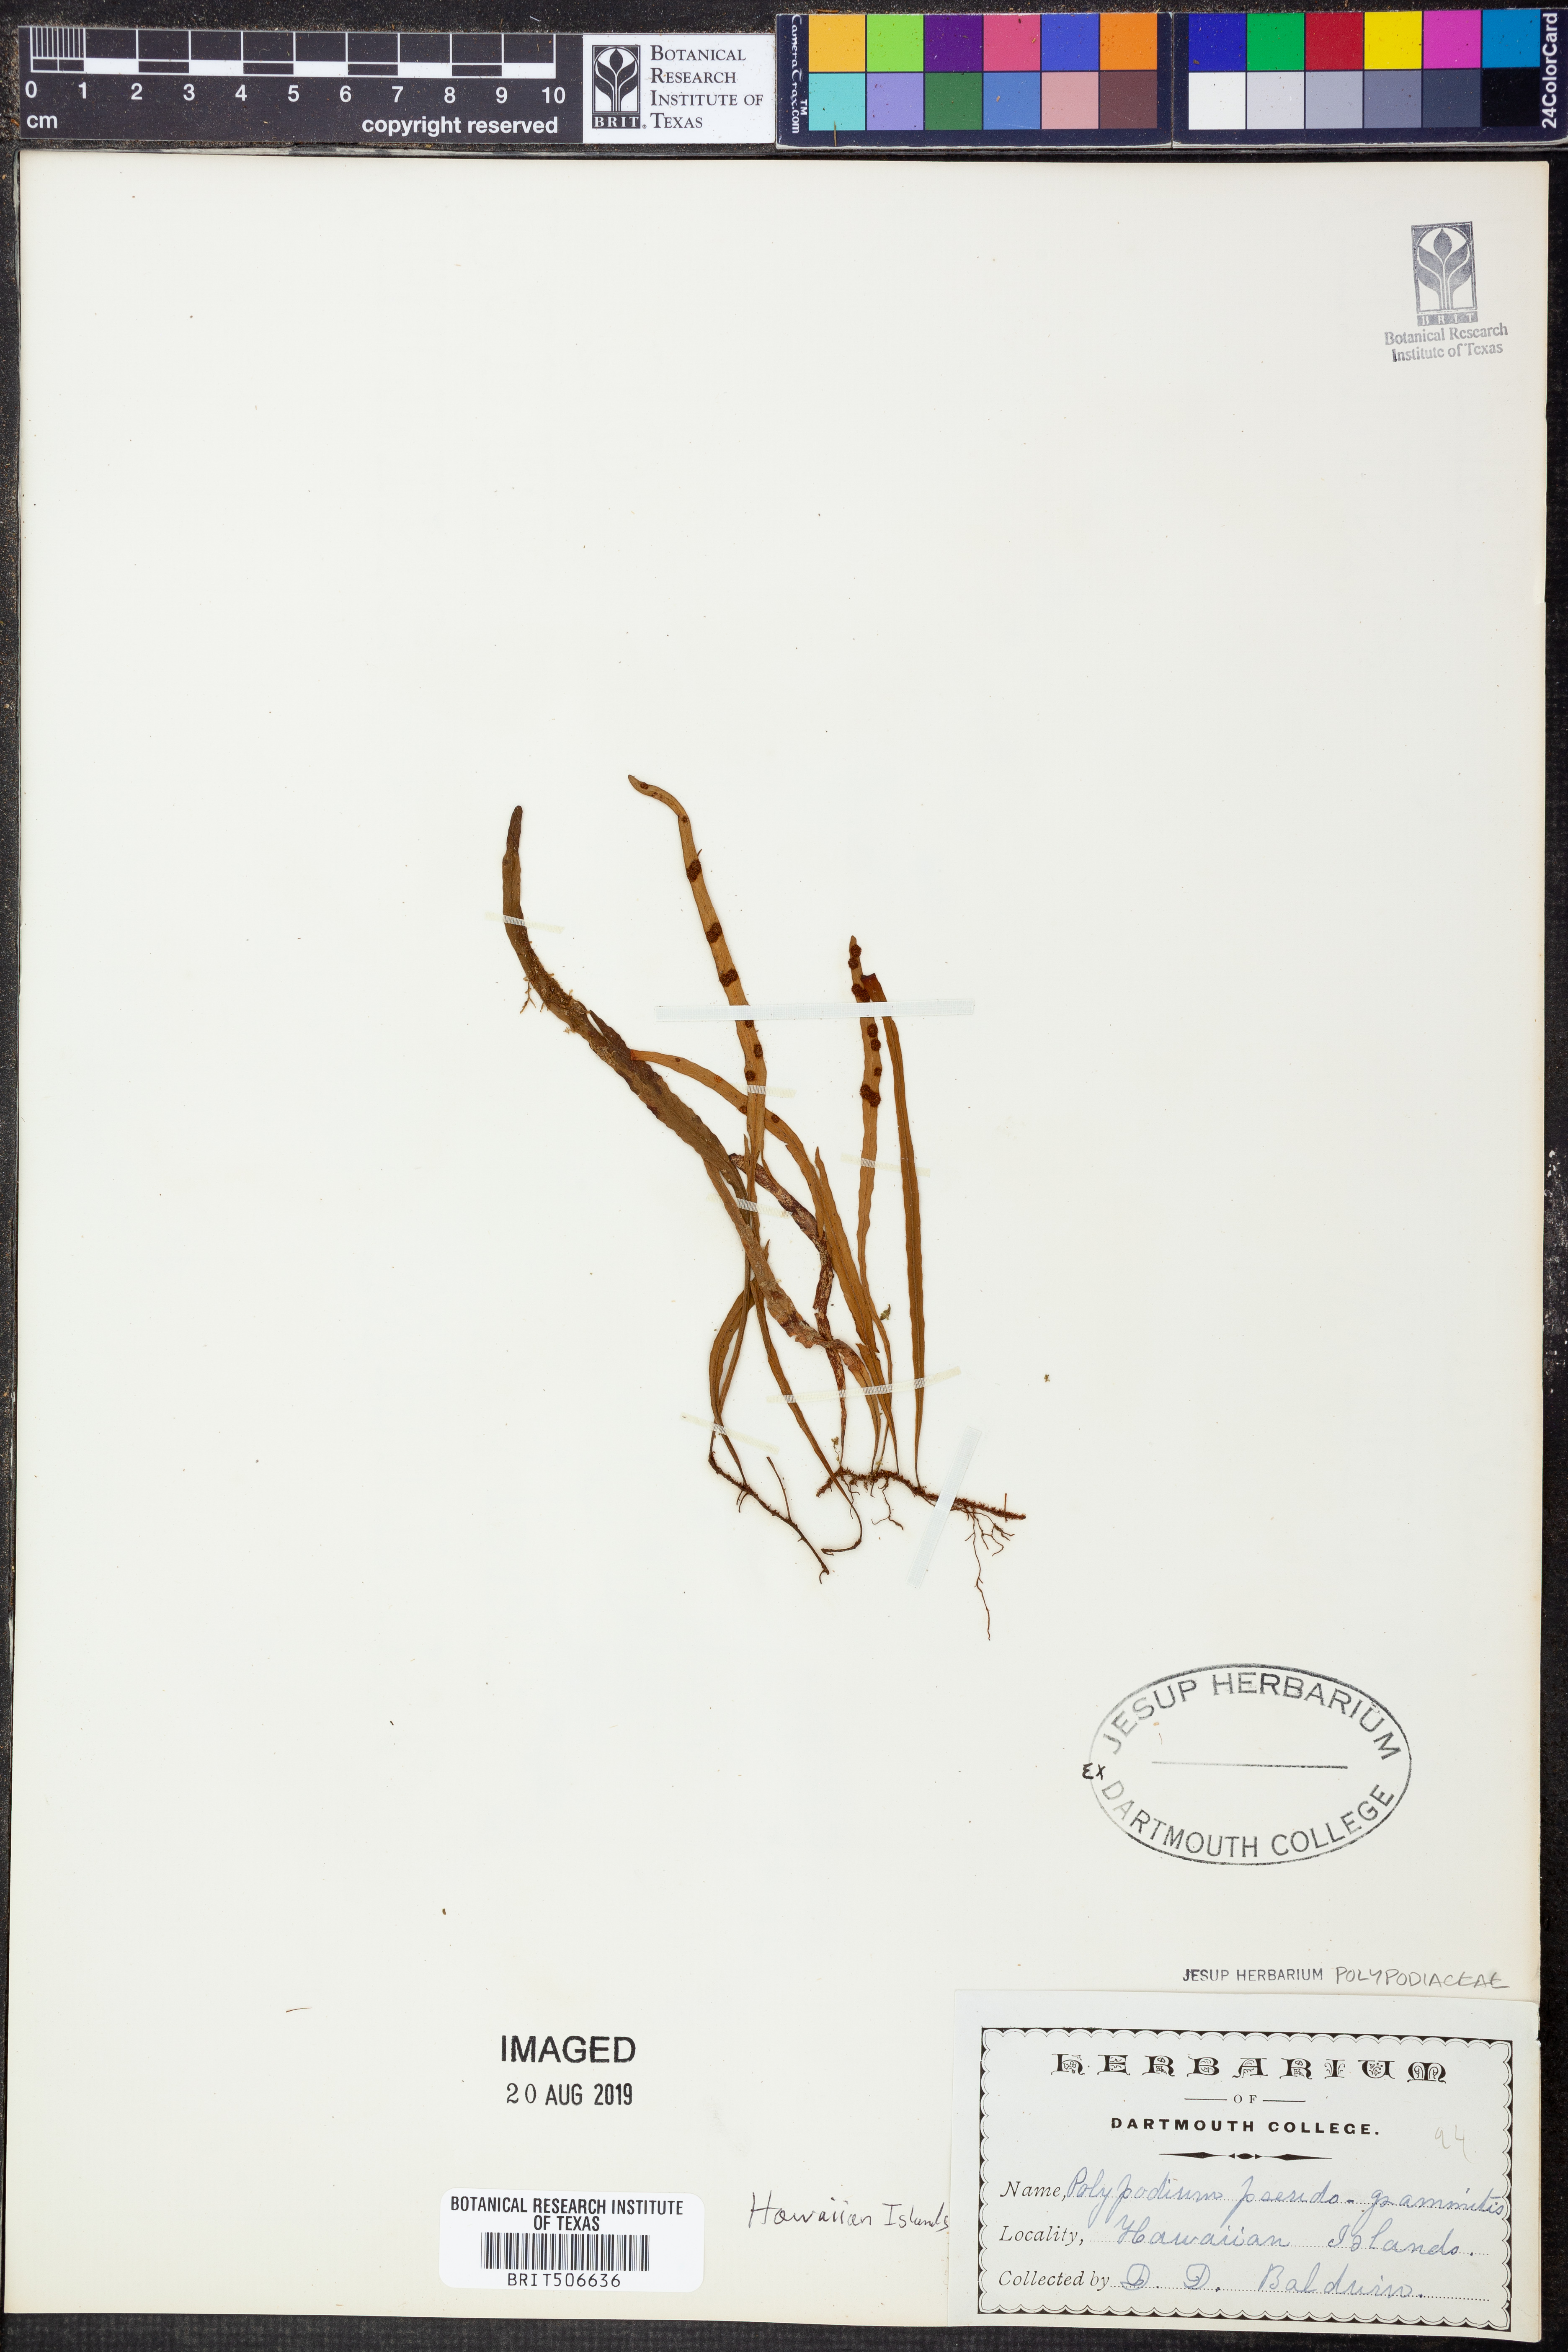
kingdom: Plantae
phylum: Tracheophyta
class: Polypodiopsida
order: Polypodiales
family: Polypodiaceae
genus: Adenophorus
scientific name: Adenophorus tenellus
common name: Kolokolo
